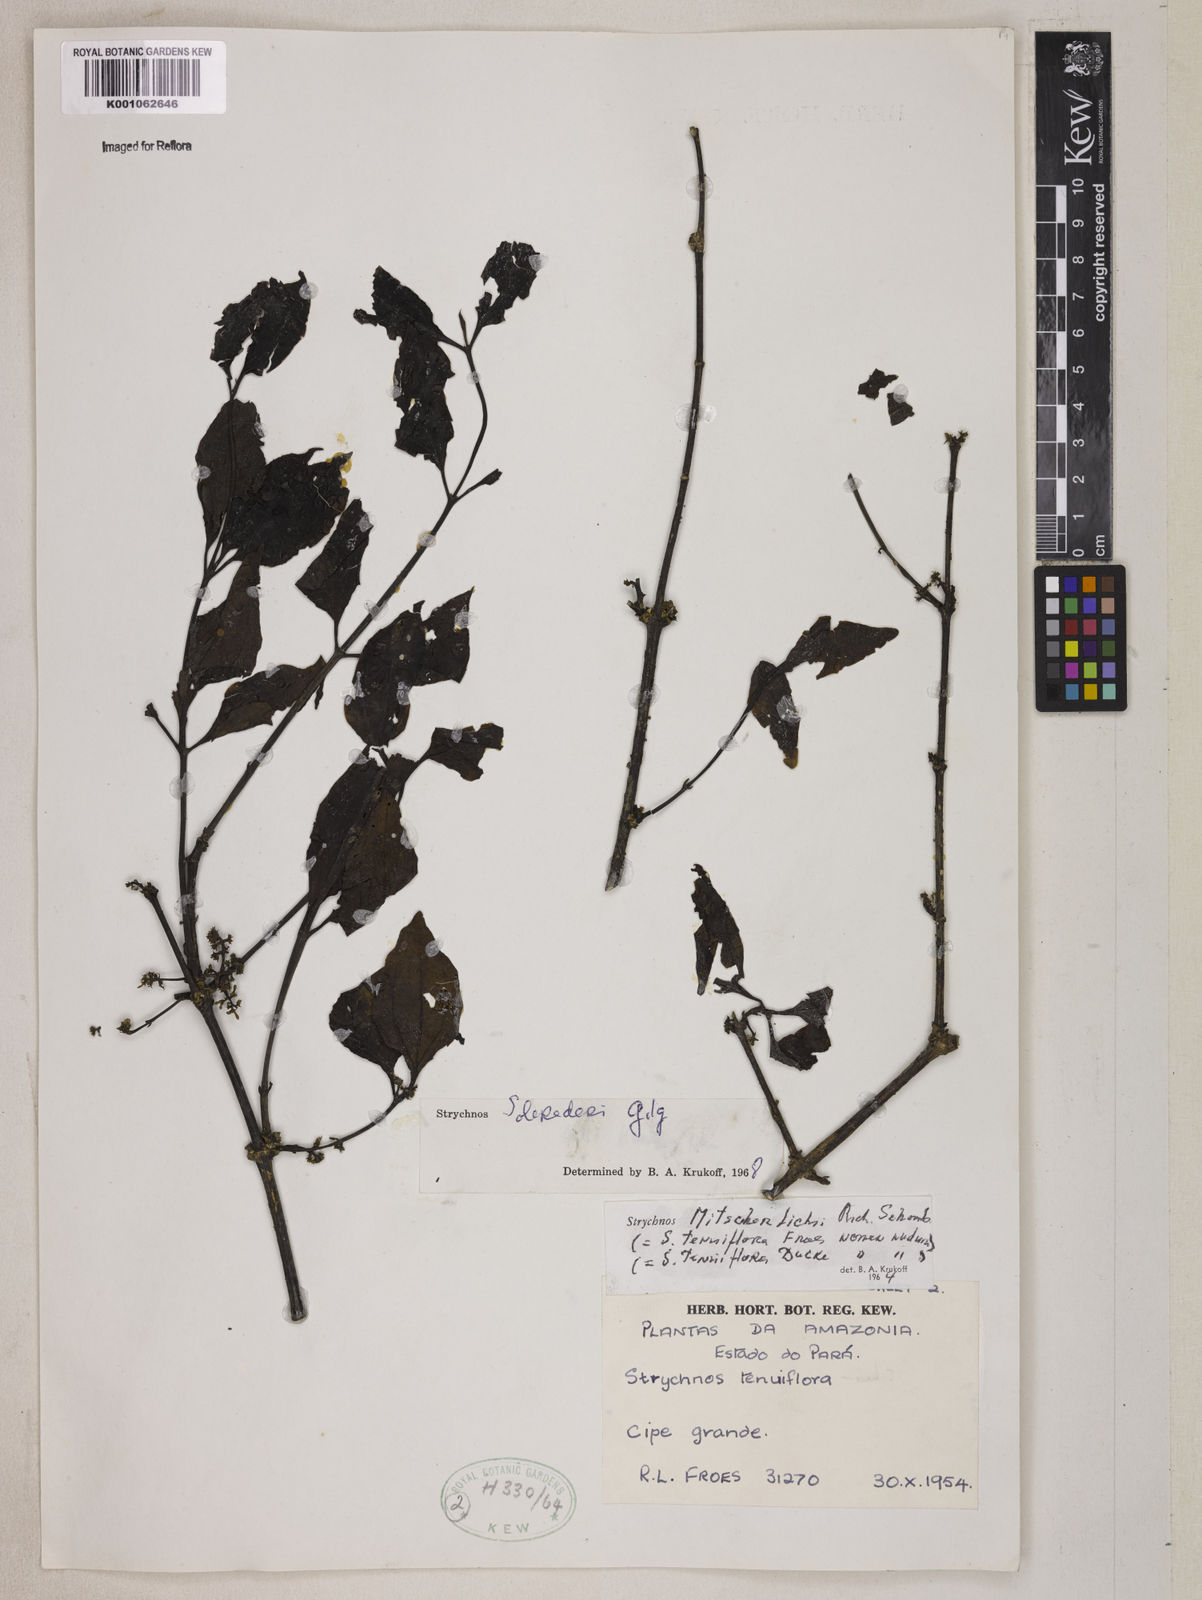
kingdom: Plantae
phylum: Tracheophyta
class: Magnoliopsida
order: Gentianales
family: Loganiaceae
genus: Strychnos
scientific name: Strychnos solerederi
